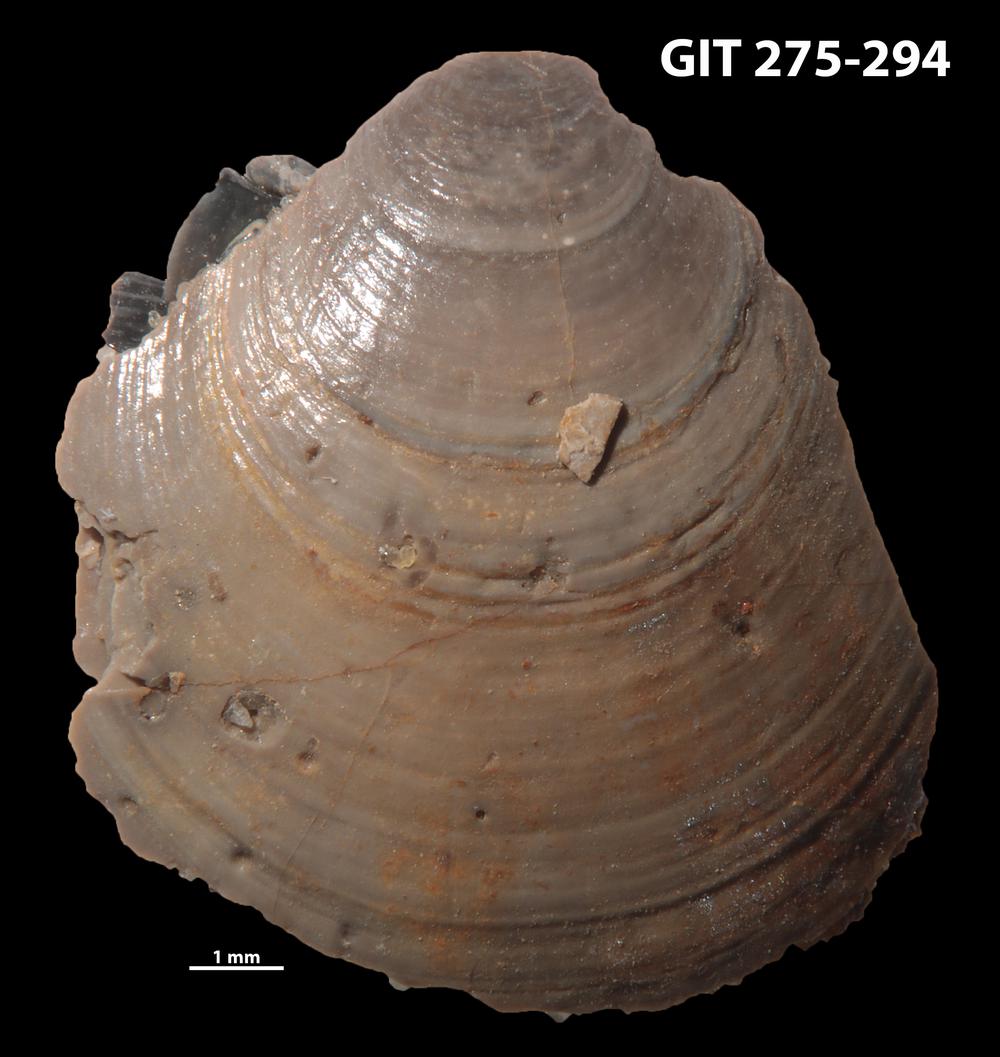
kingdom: Animalia
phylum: Brachiopoda
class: Lingulata
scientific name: Lingulata
